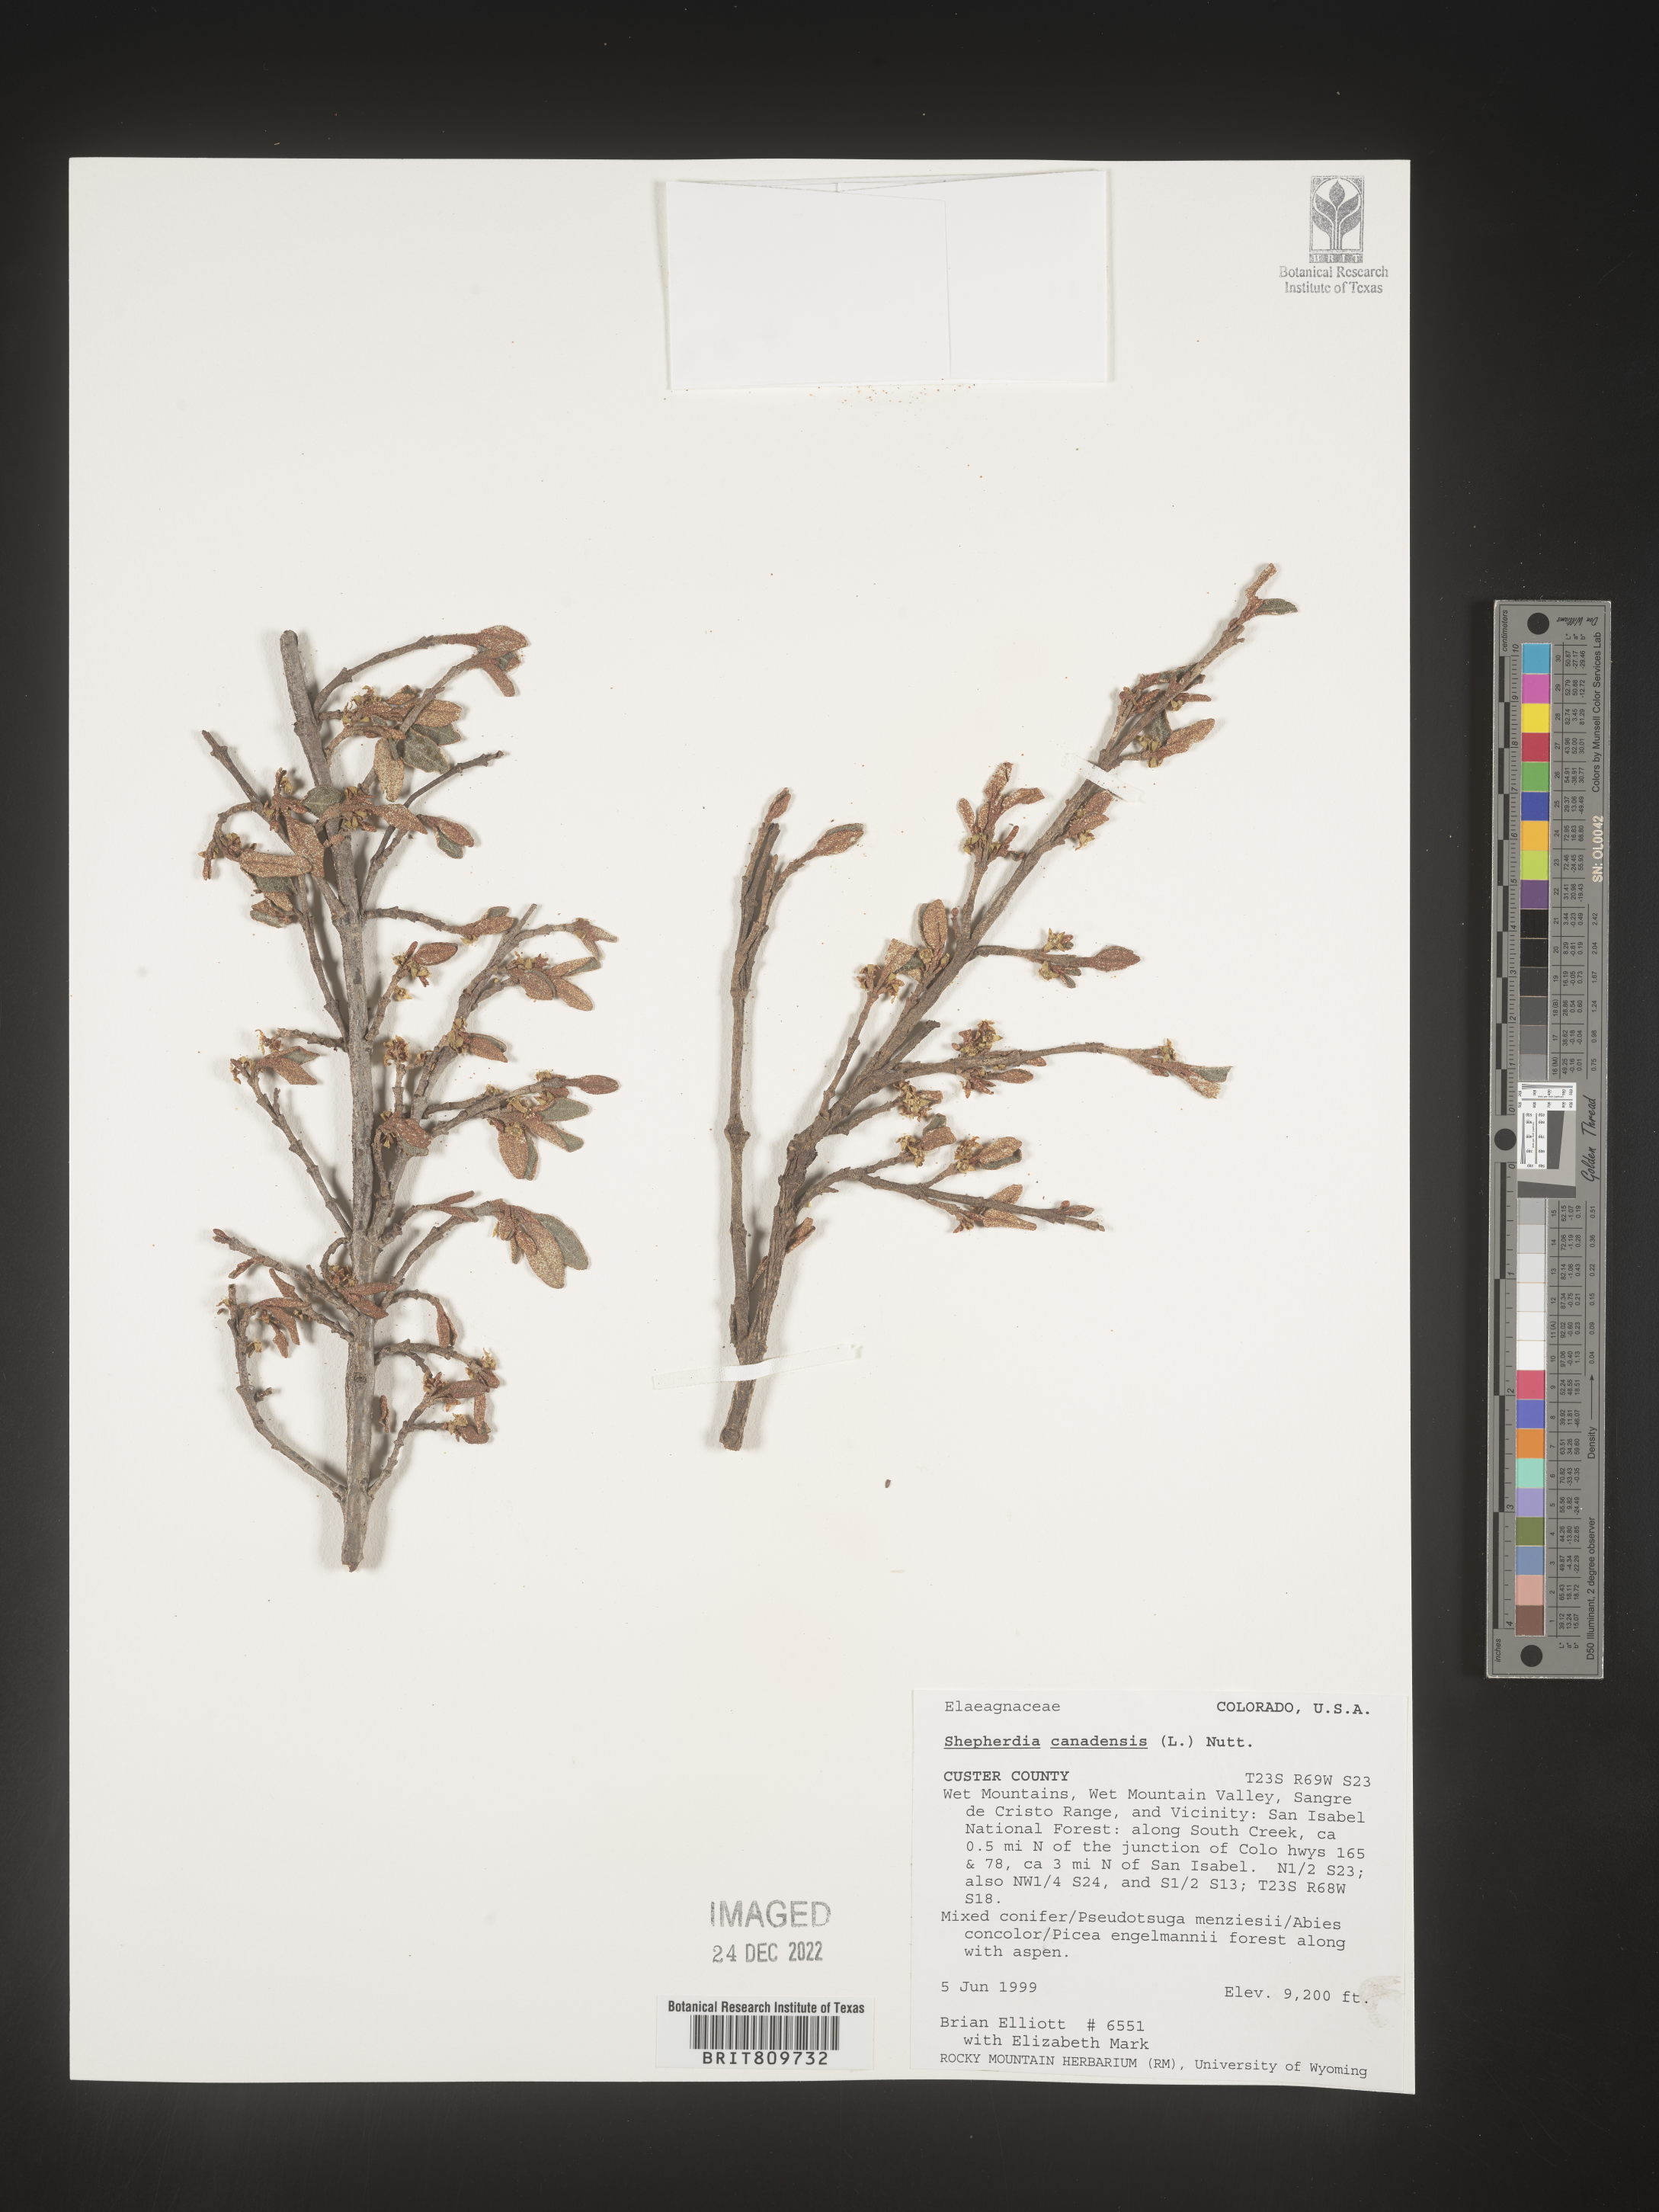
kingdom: Plantae
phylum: Tracheophyta
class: Magnoliopsida
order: Rosales
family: Elaeagnaceae
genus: Shepherdia
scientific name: Shepherdia canadensis
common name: Soapberry
